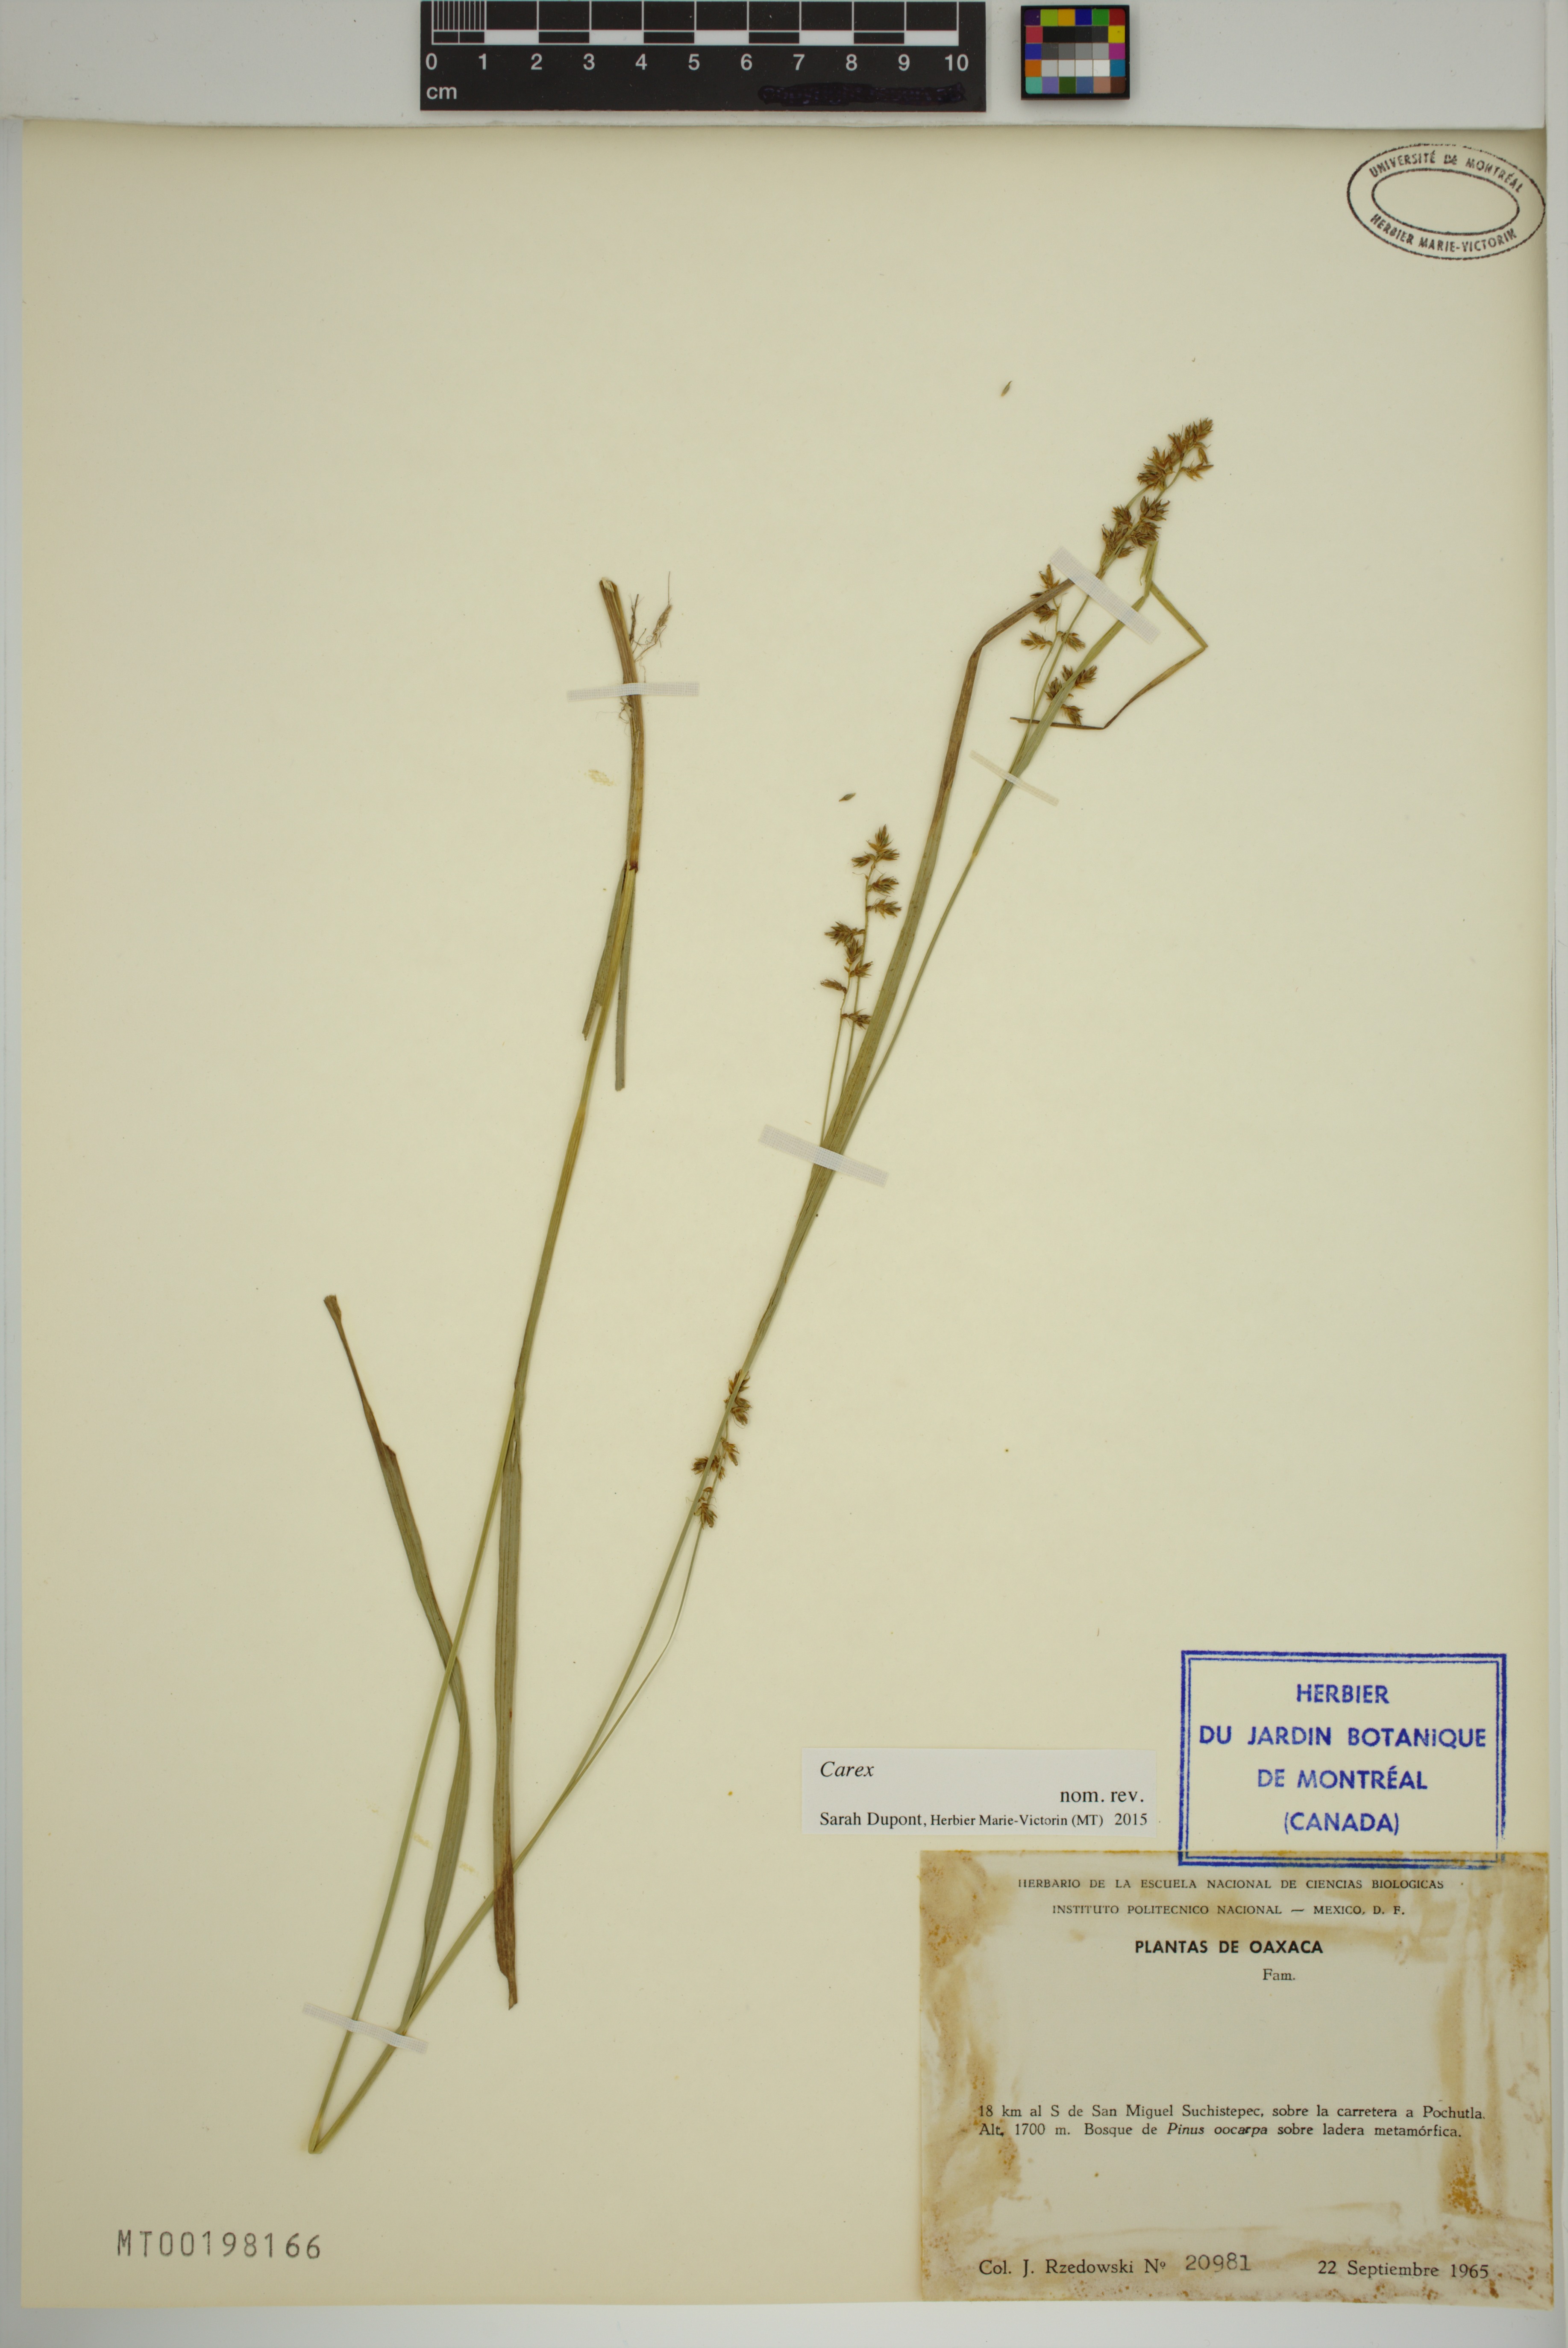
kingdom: Plantae
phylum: Tracheophyta
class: Liliopsida
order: Poales
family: Cyperaceae
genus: Carex
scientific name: Carex
